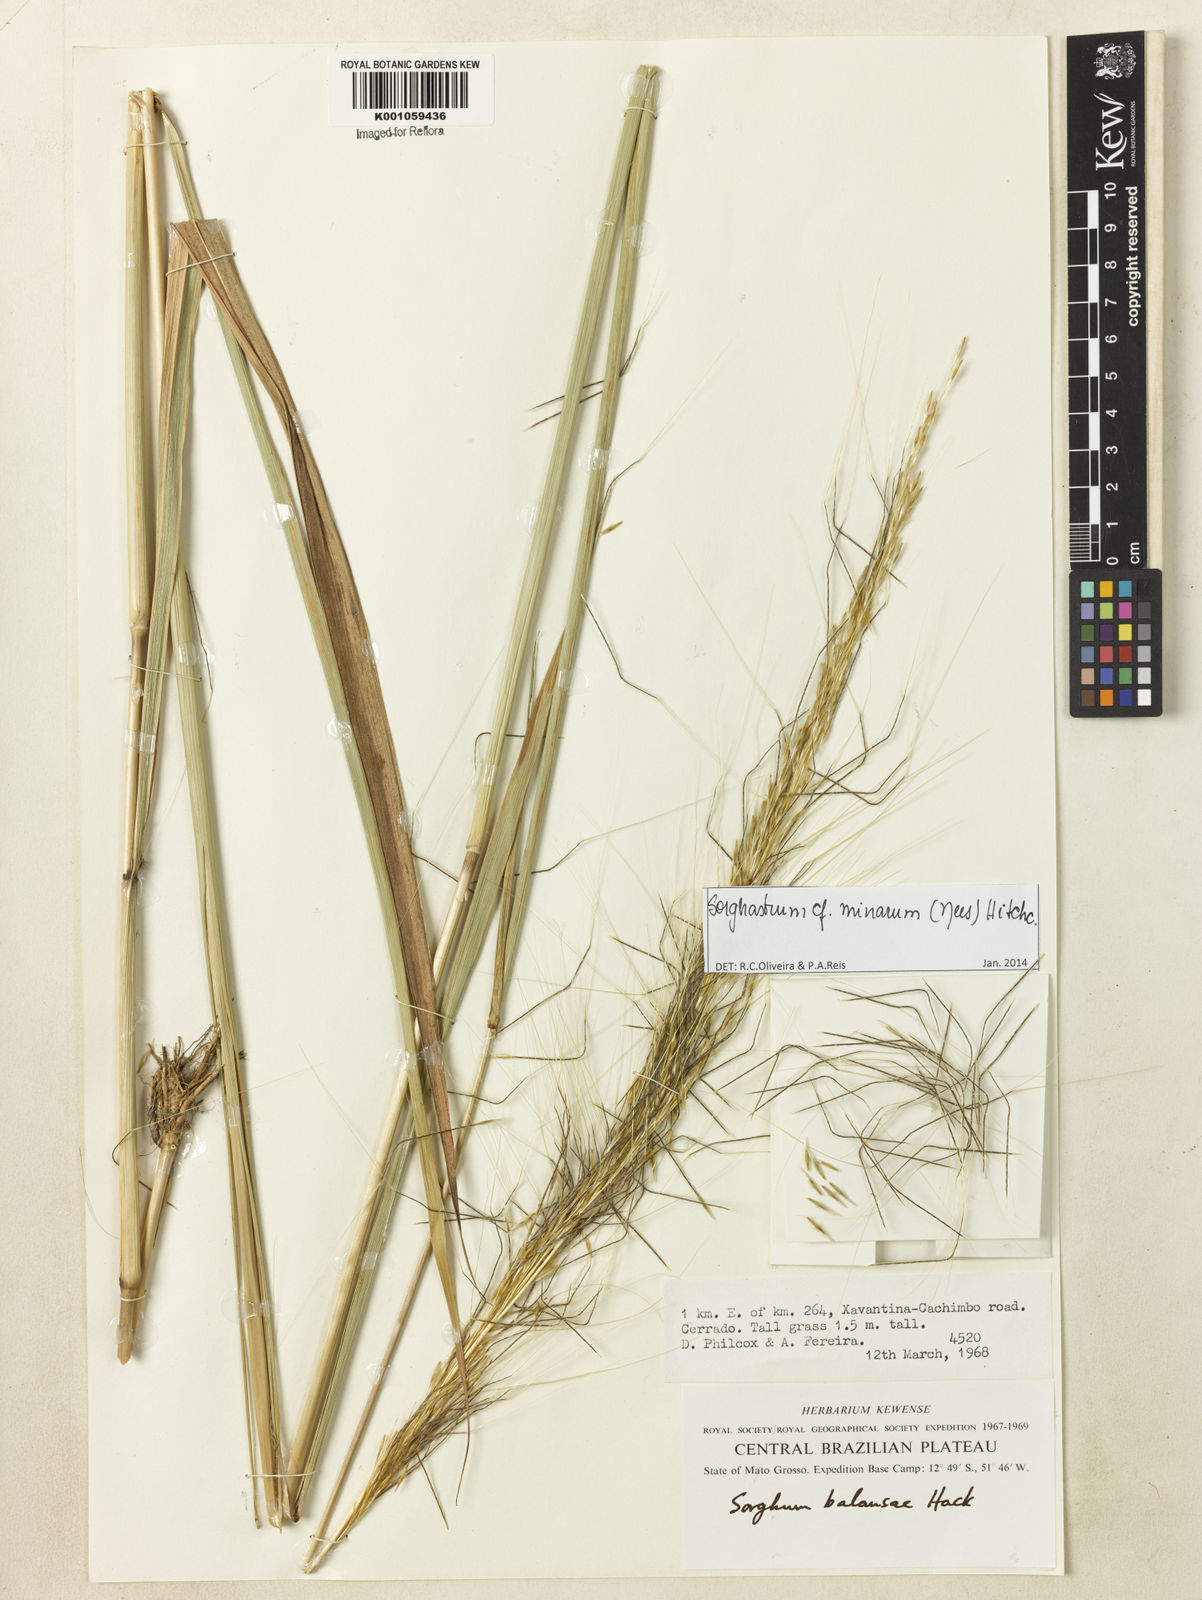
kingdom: Plantae
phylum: Tracheophyta
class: Liliopsida
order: Poales
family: Poaceae
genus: Sorghastrum
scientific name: Sorghastrum minarum
